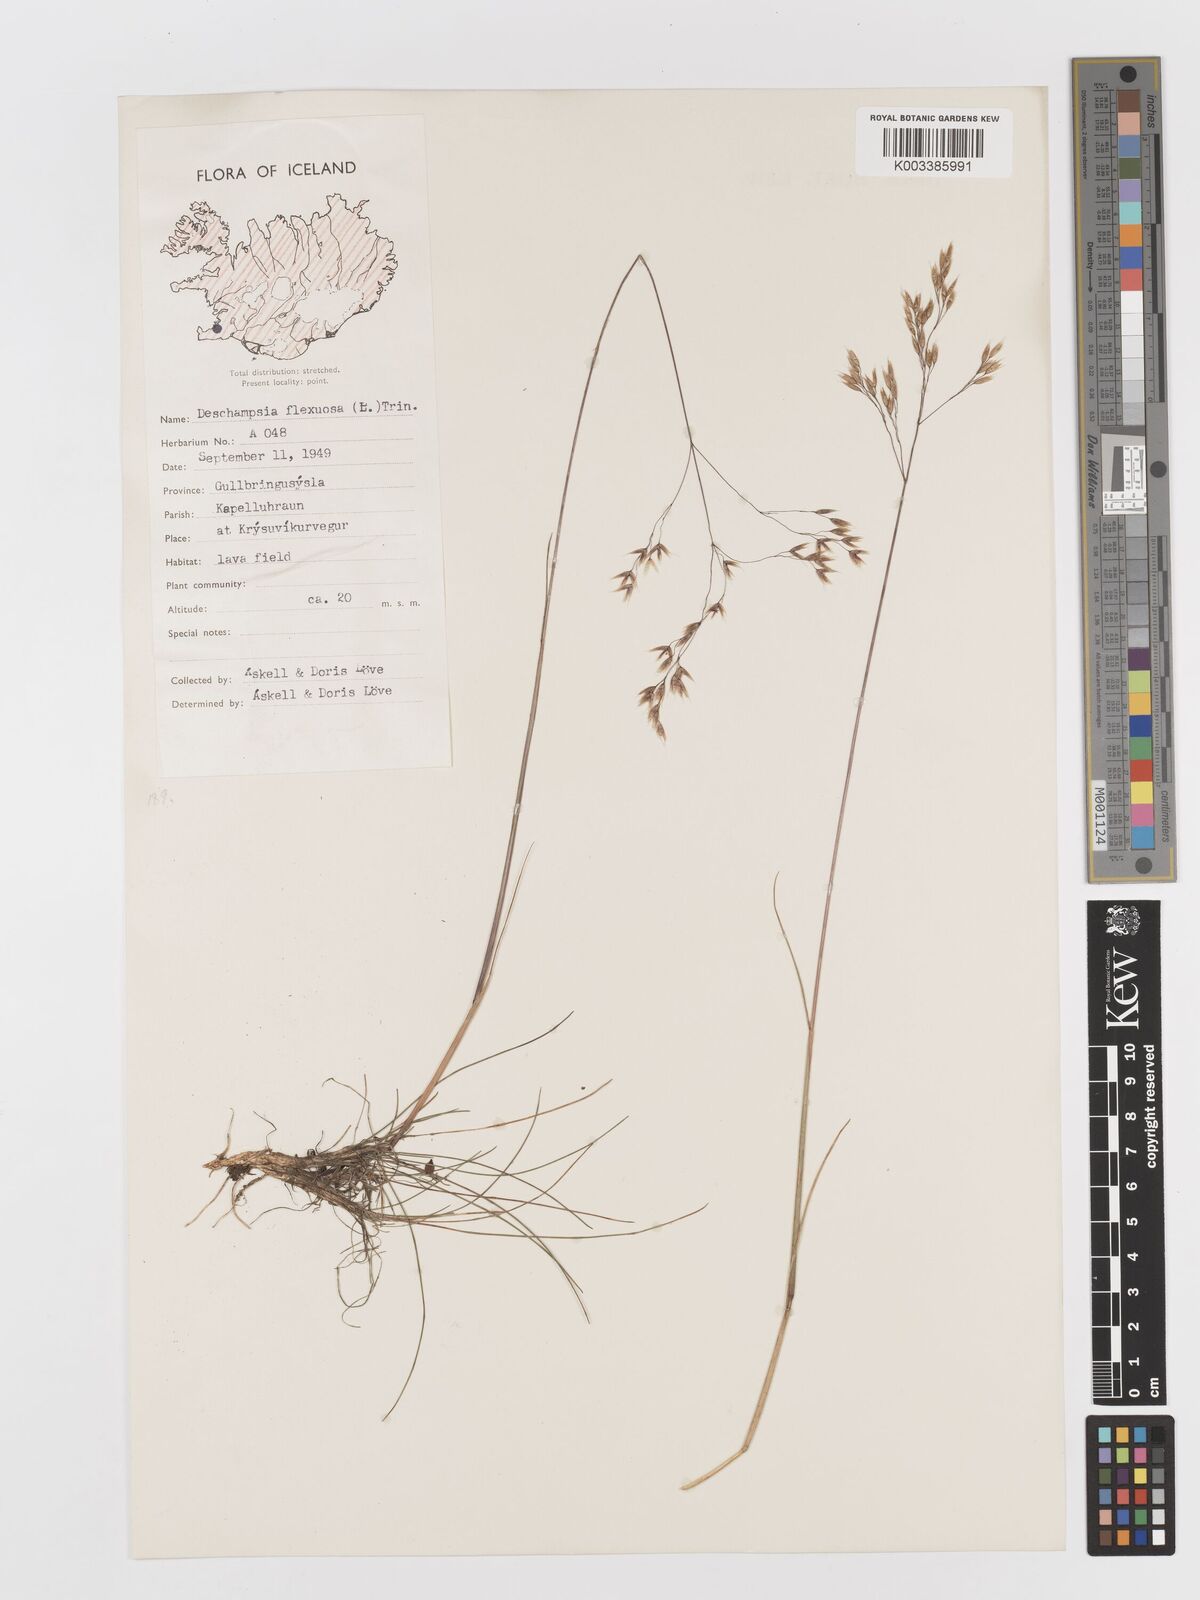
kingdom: Plantae
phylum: Tracheophyta
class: Liliopsida
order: Poales
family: Poaceae
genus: Avenella
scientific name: Avenella flexuosa
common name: Wavy hairgrass
